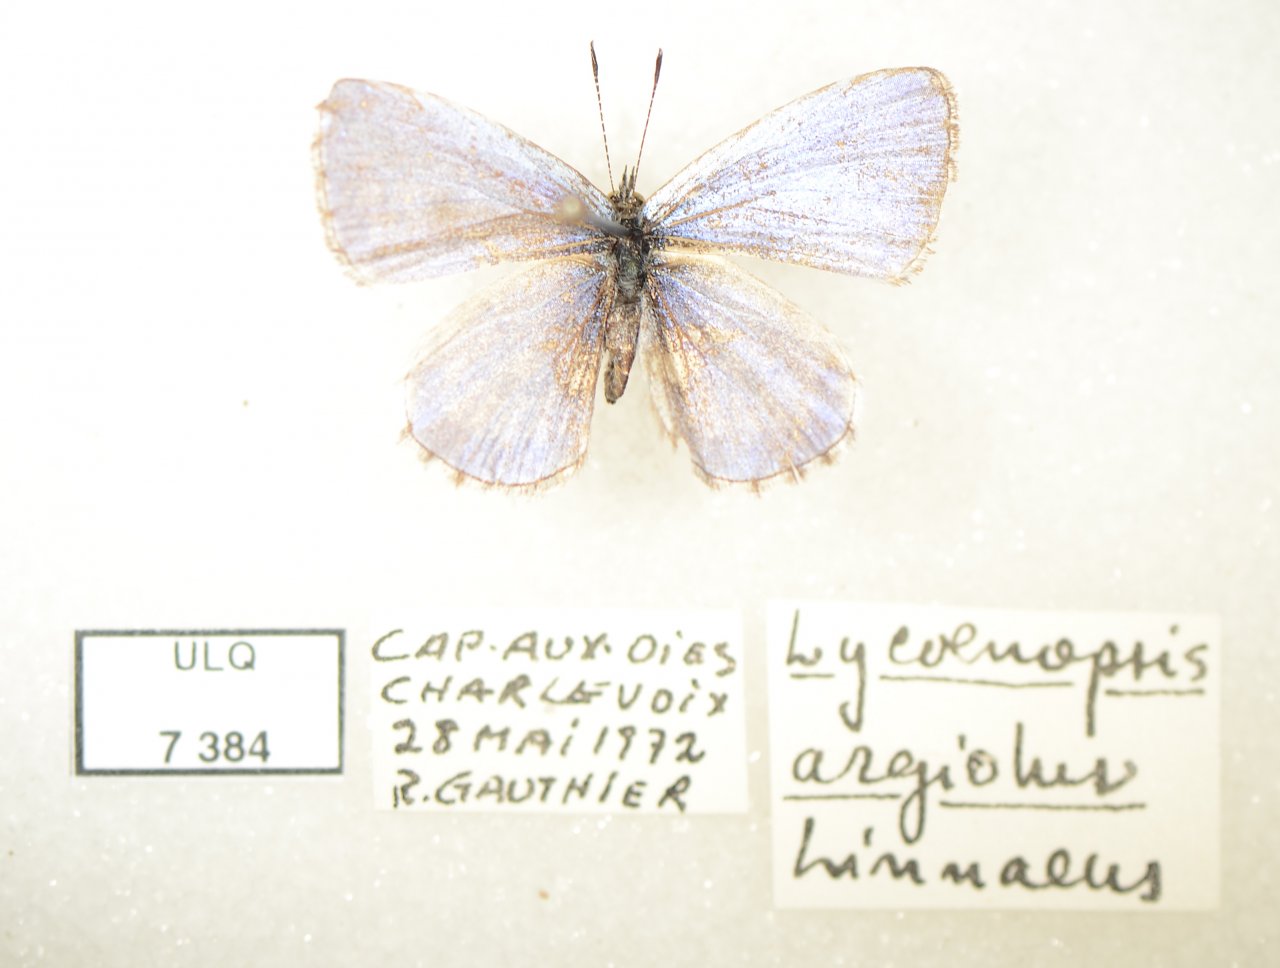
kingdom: Animalia
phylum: Arthropoda
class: Insecta
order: Lepidoptera
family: Lycaenidae
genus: Celastrina
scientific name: Celastrina lucia
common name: Northern Spring Azure
